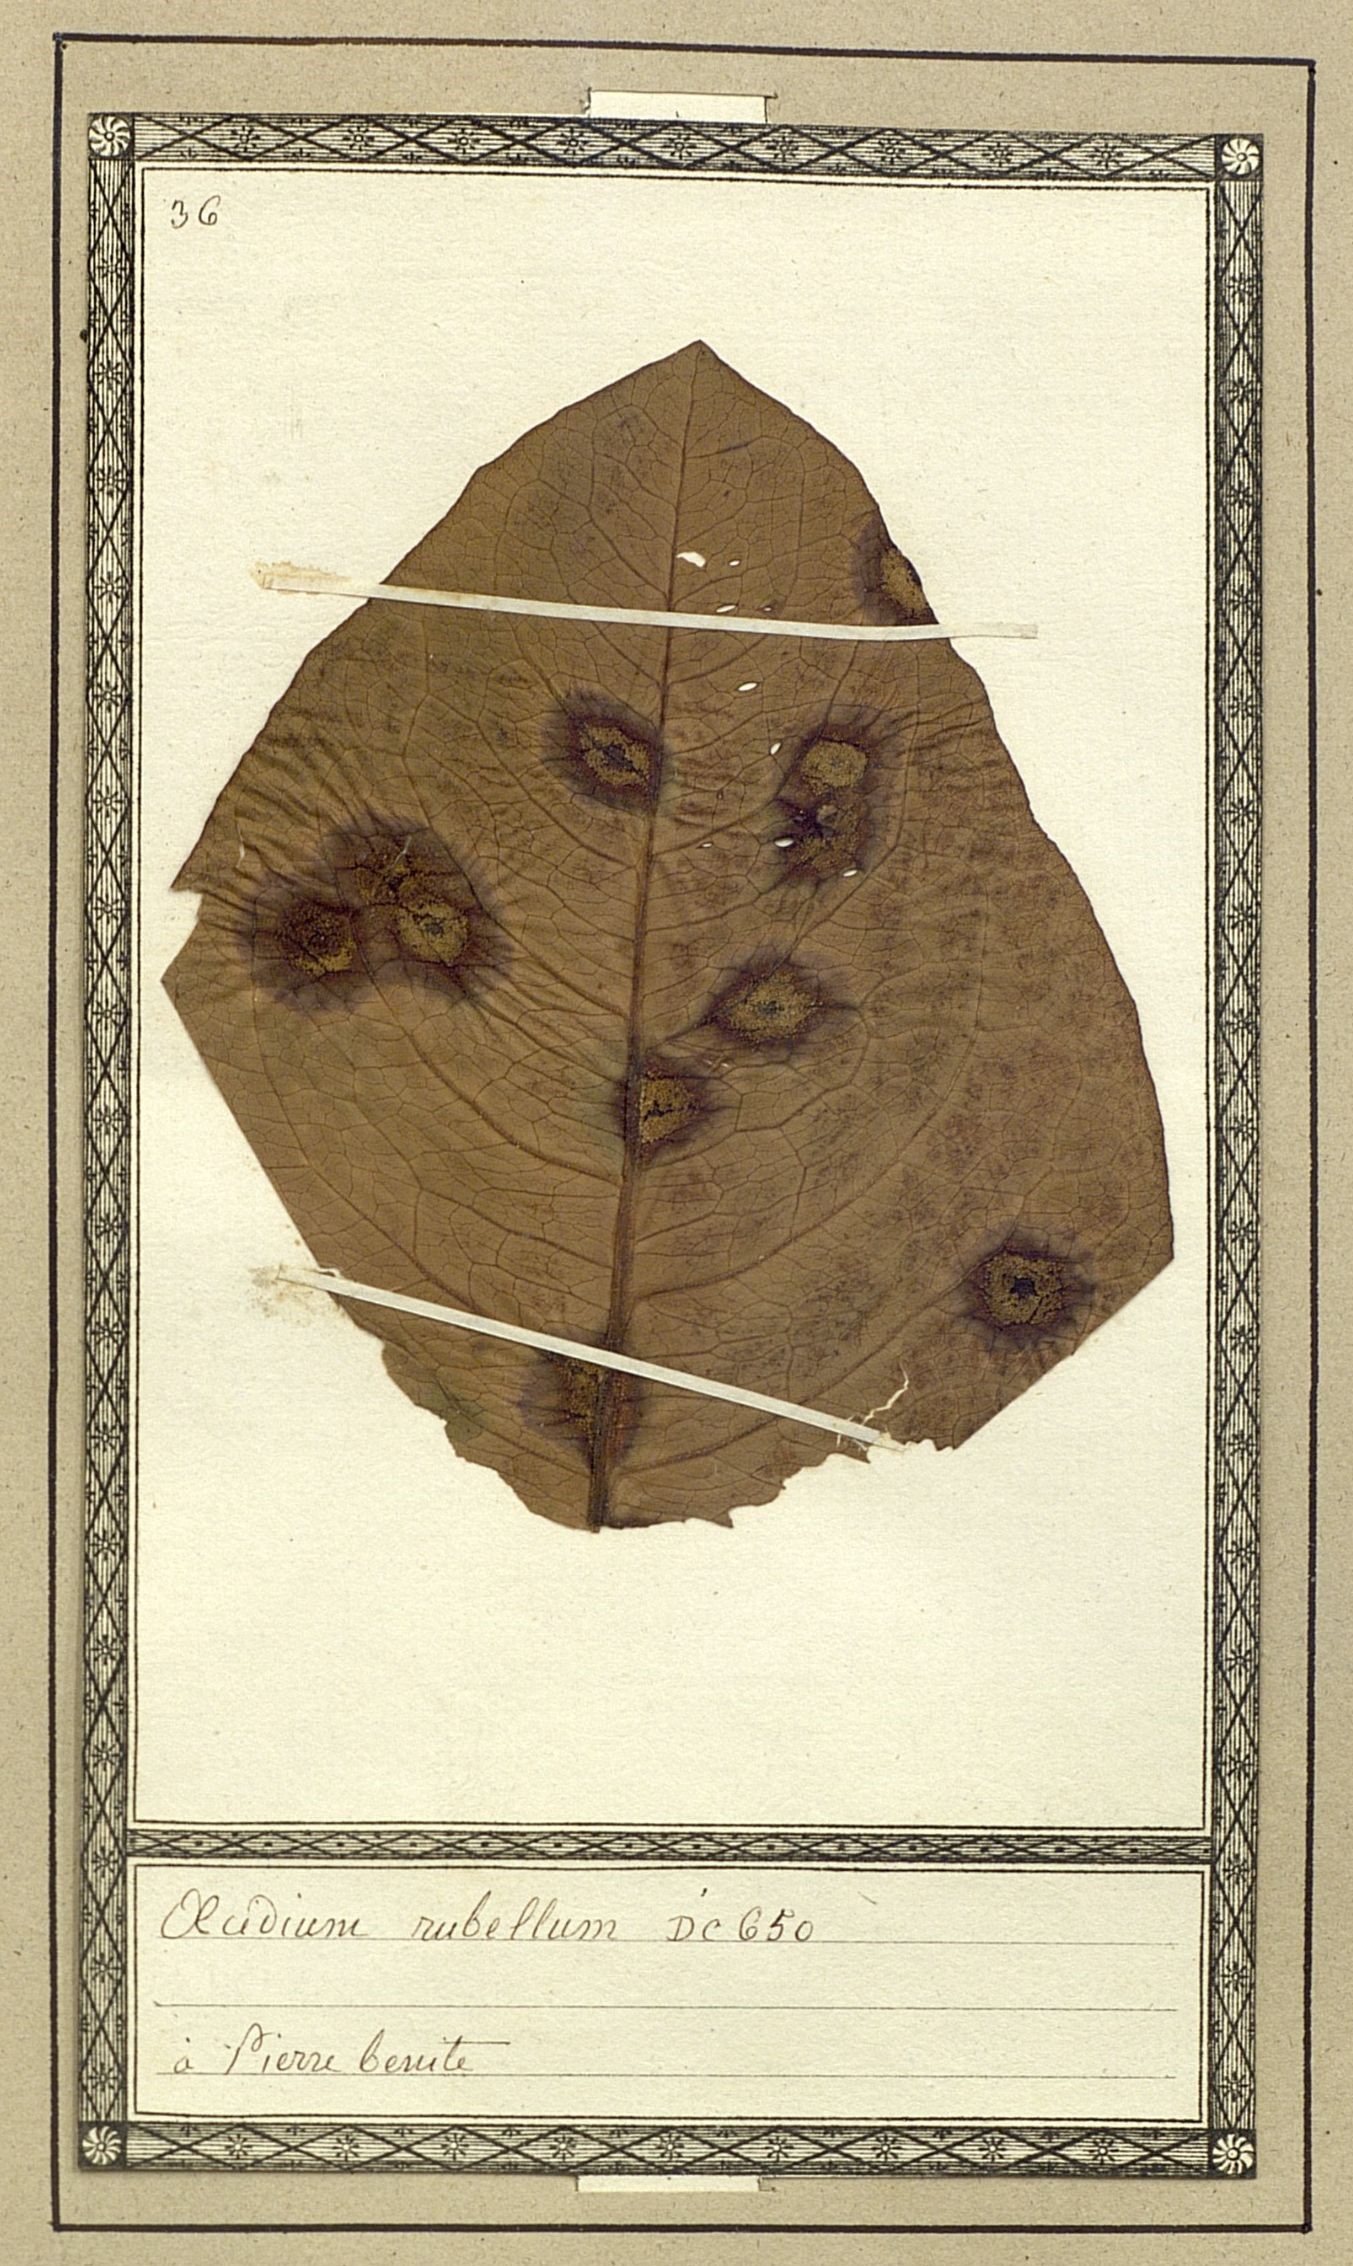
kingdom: Fungi
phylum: Basidiomycota
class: Pucciniomycetes
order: Pucciniales
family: Pucciniaceae
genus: Puccinia
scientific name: Puccinia phragmitis
